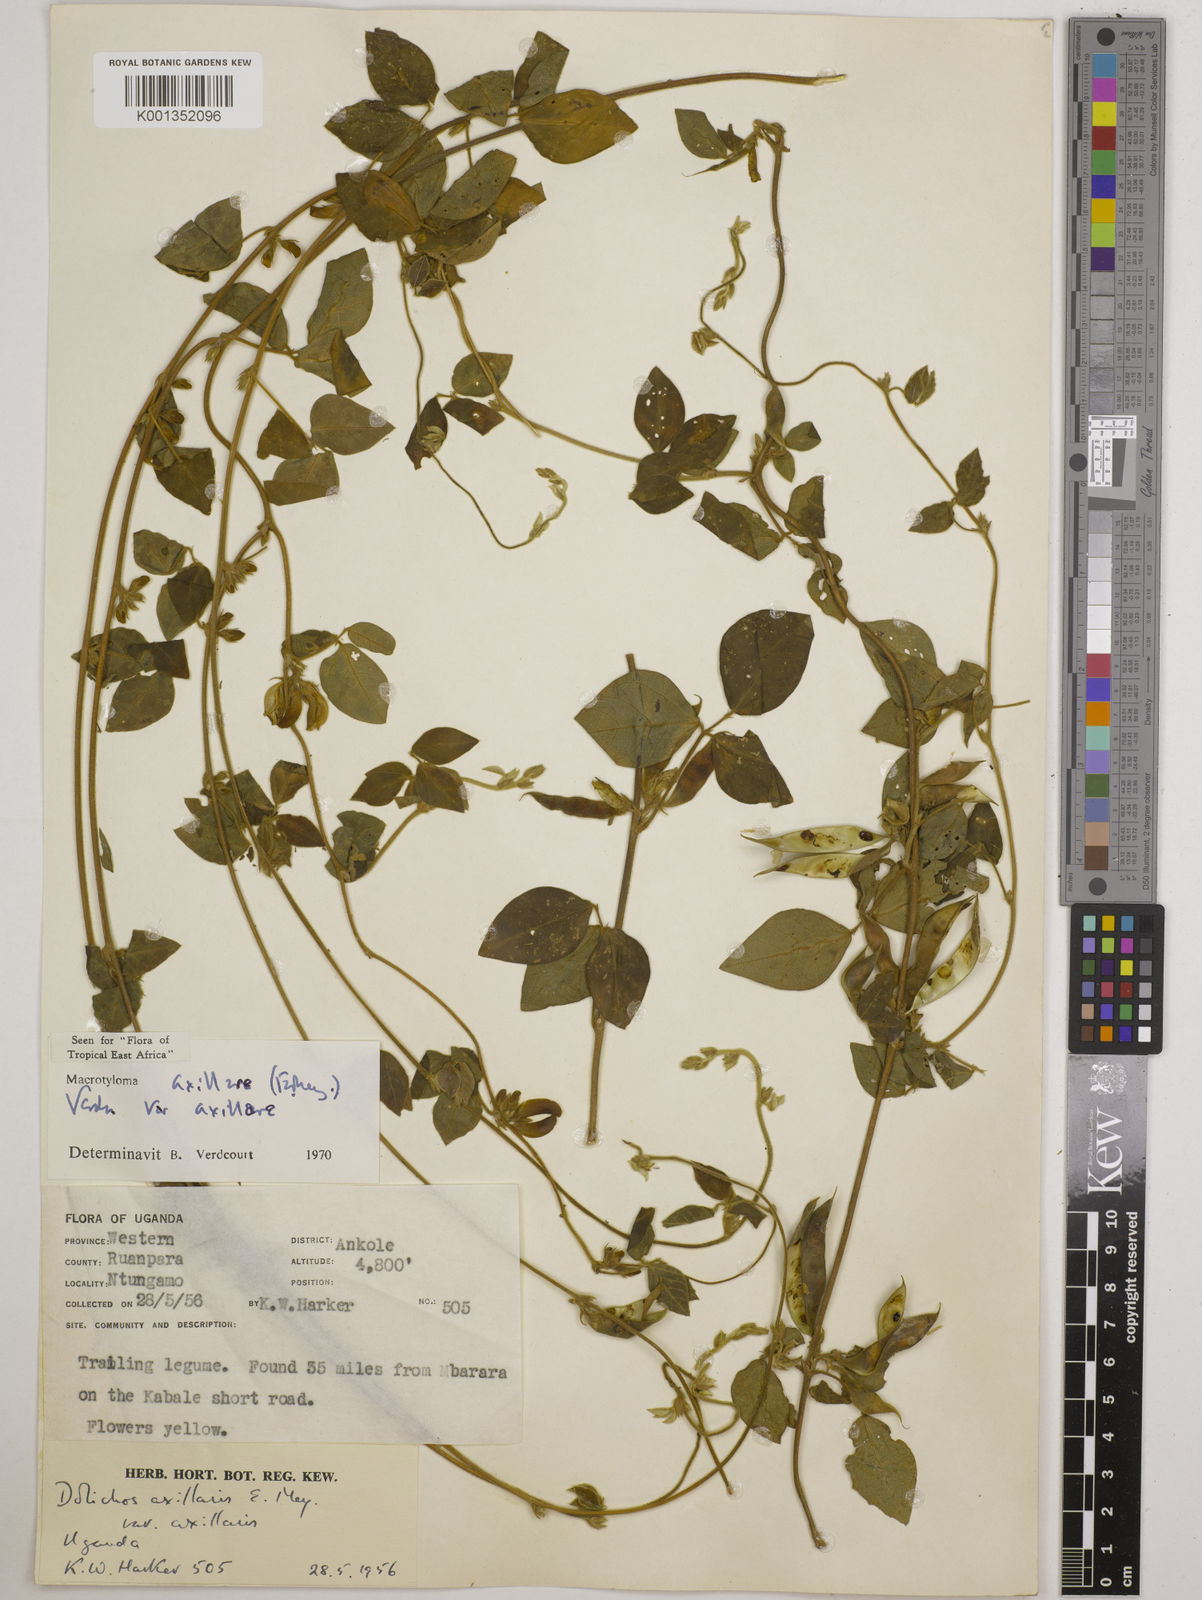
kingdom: Plantae
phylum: Tracheophyta
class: Magnoliopsida
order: Fabales
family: Fabaceae
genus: Macrotyloma
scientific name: Macrotyloma axillare
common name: Perennial horsegram
